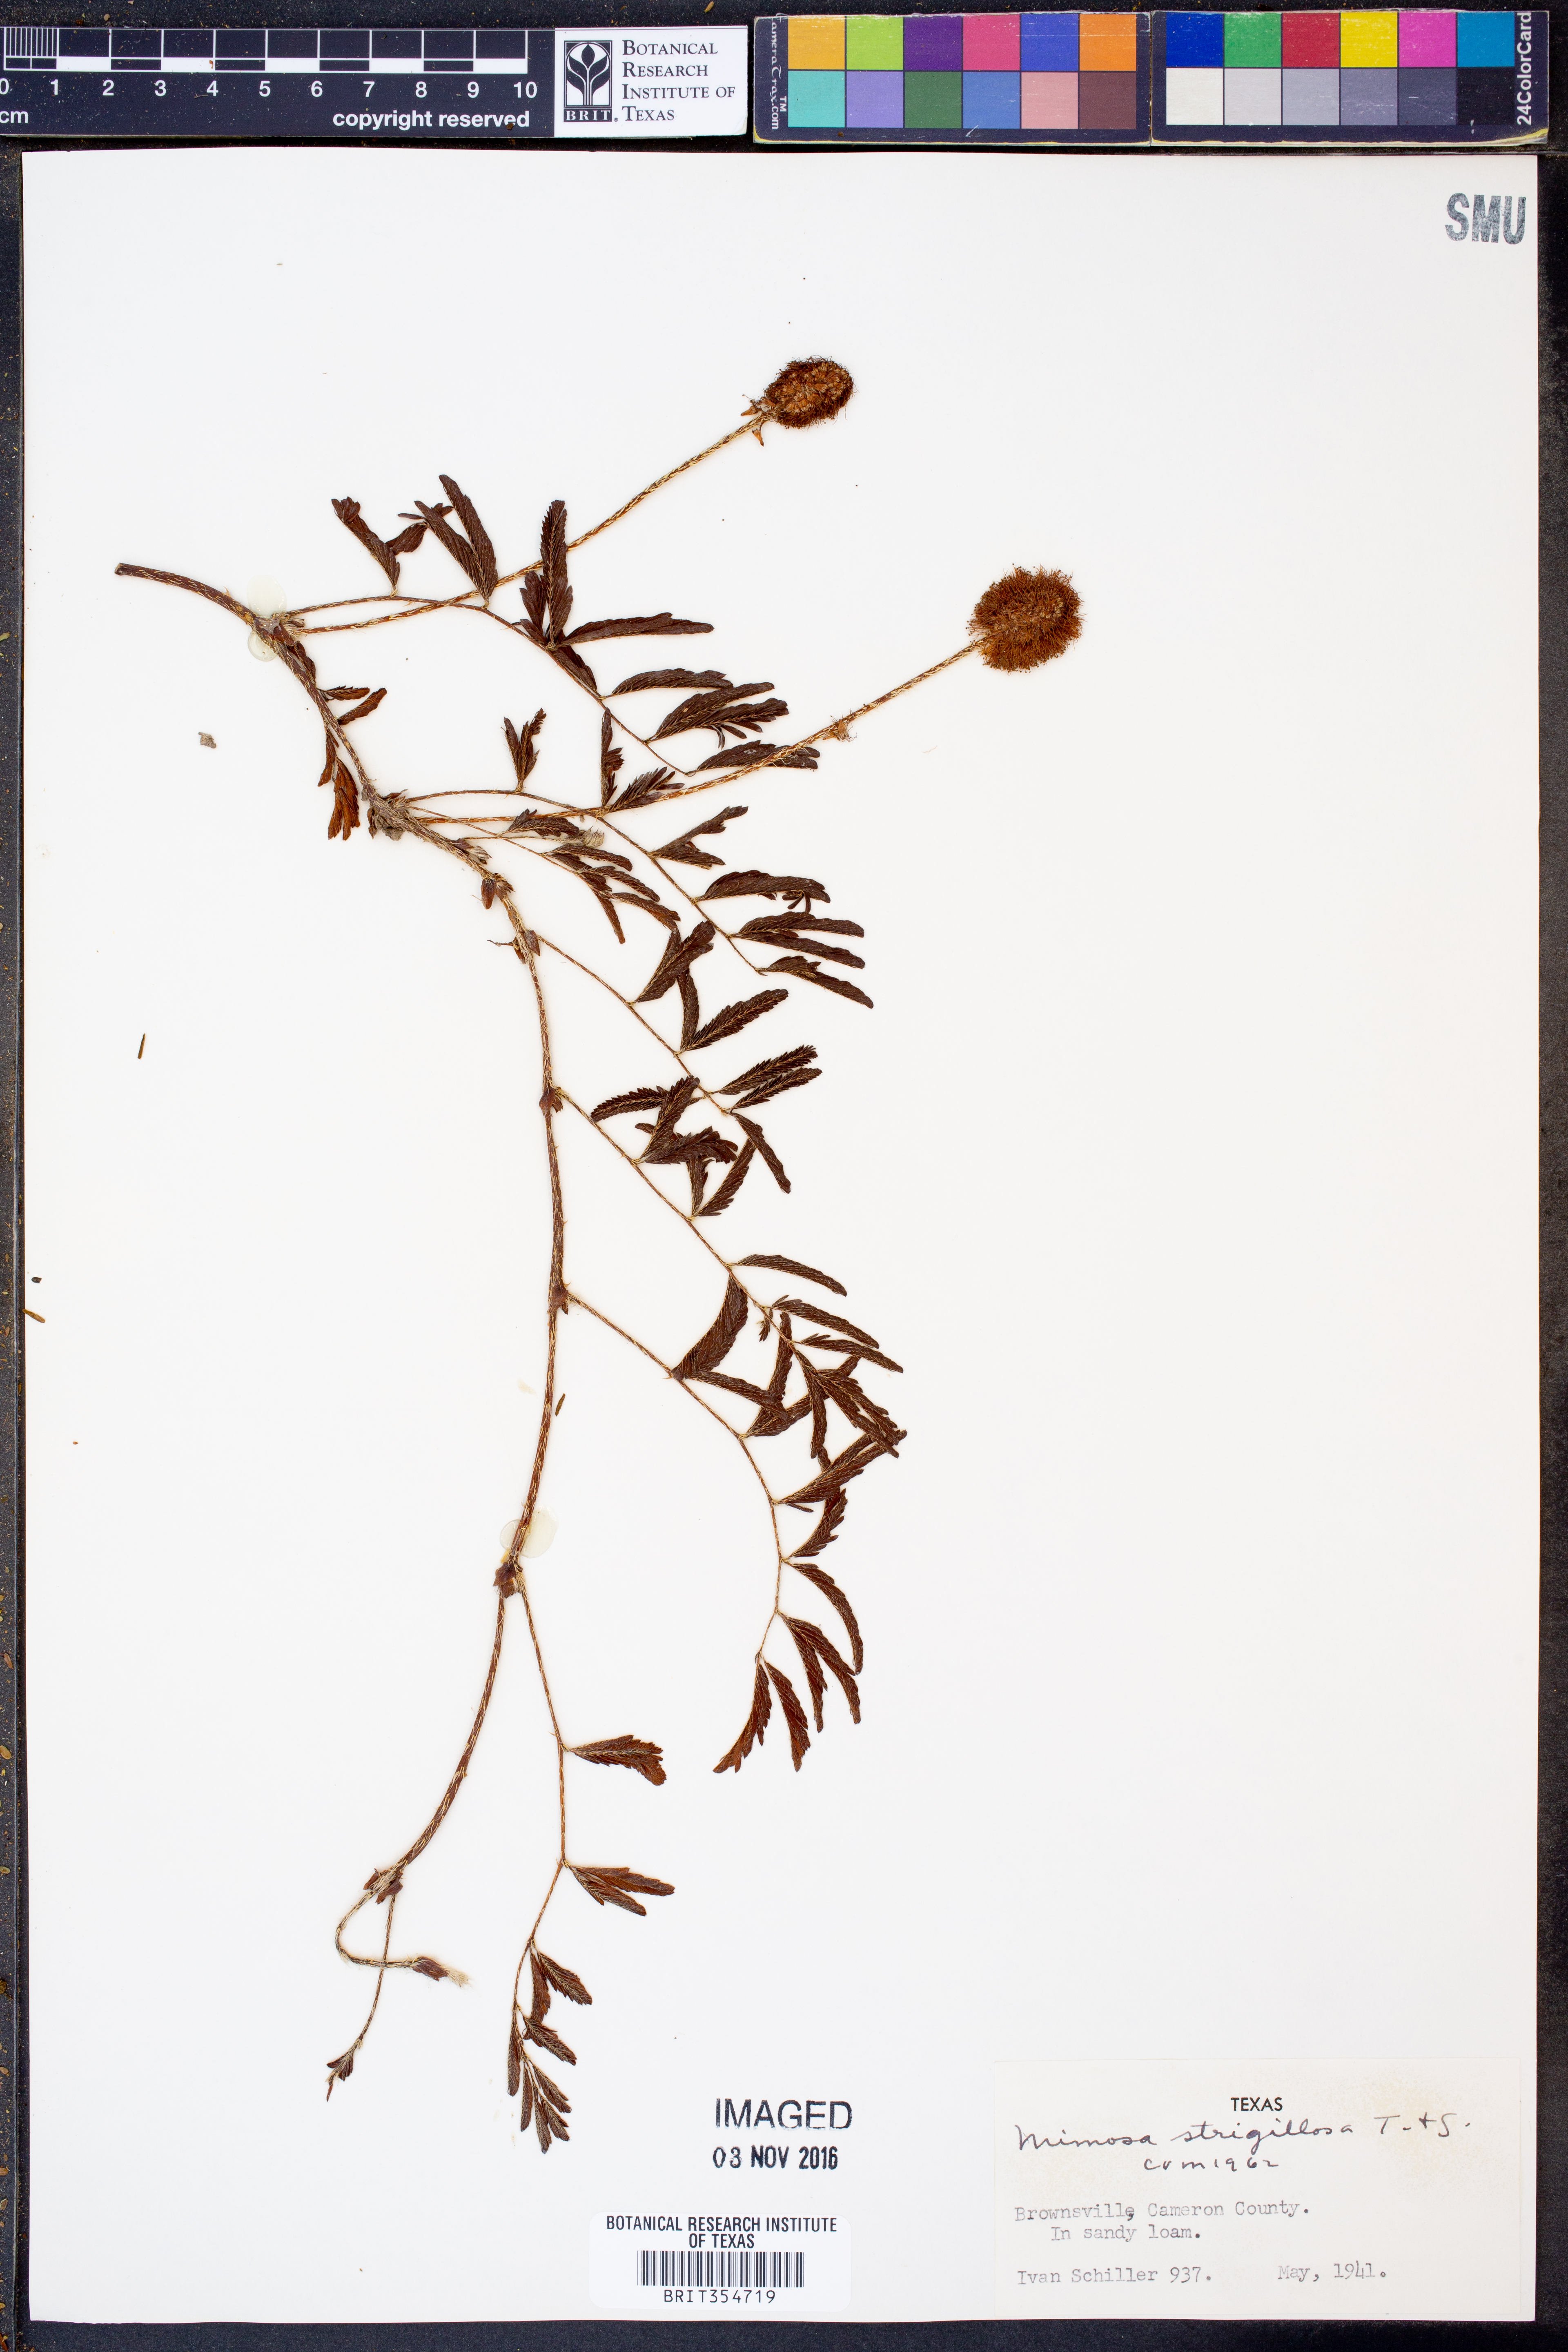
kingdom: Plantae
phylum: Tracheophyta
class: Magnoliopsida
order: Fabales
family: Fabaceae
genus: Mimosa
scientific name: Mimosa strigillosa
